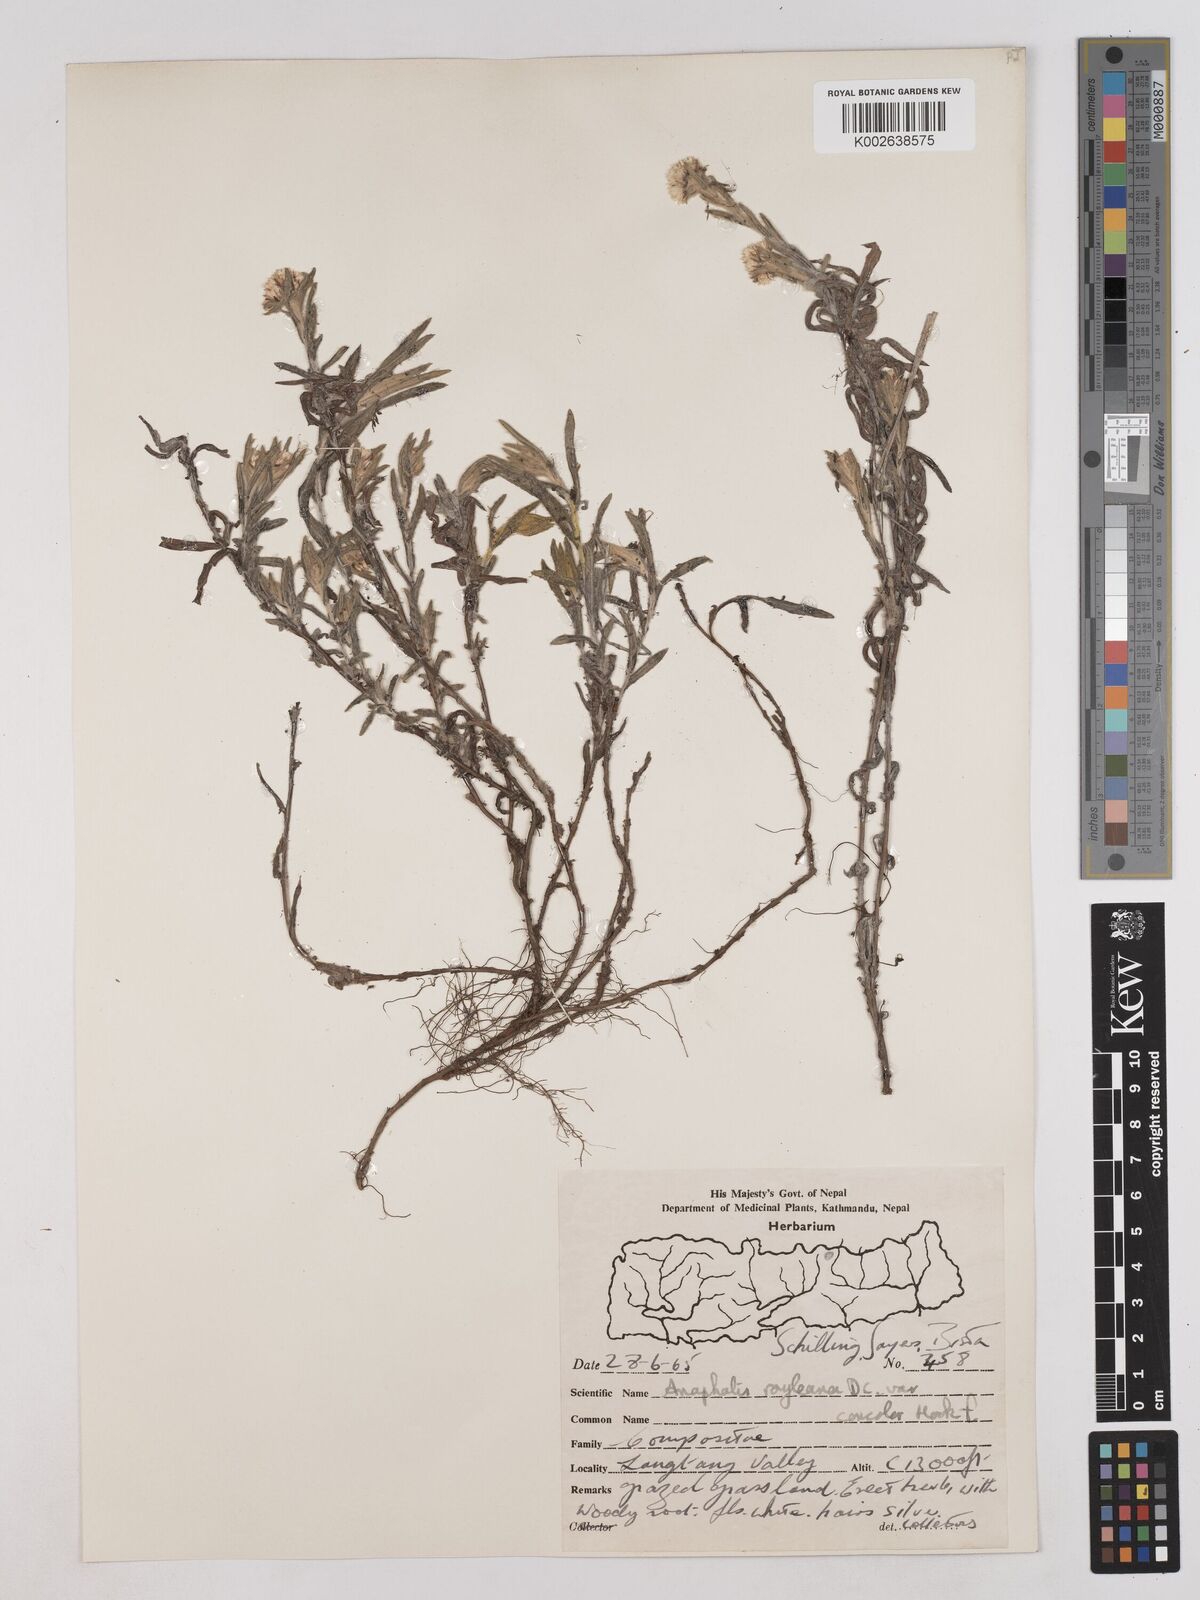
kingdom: Plantae
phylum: Tracheophyta
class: Magnoliopsida
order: Asterales
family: Asteraceae
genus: Anaphalis
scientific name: Anaphalis royleana
